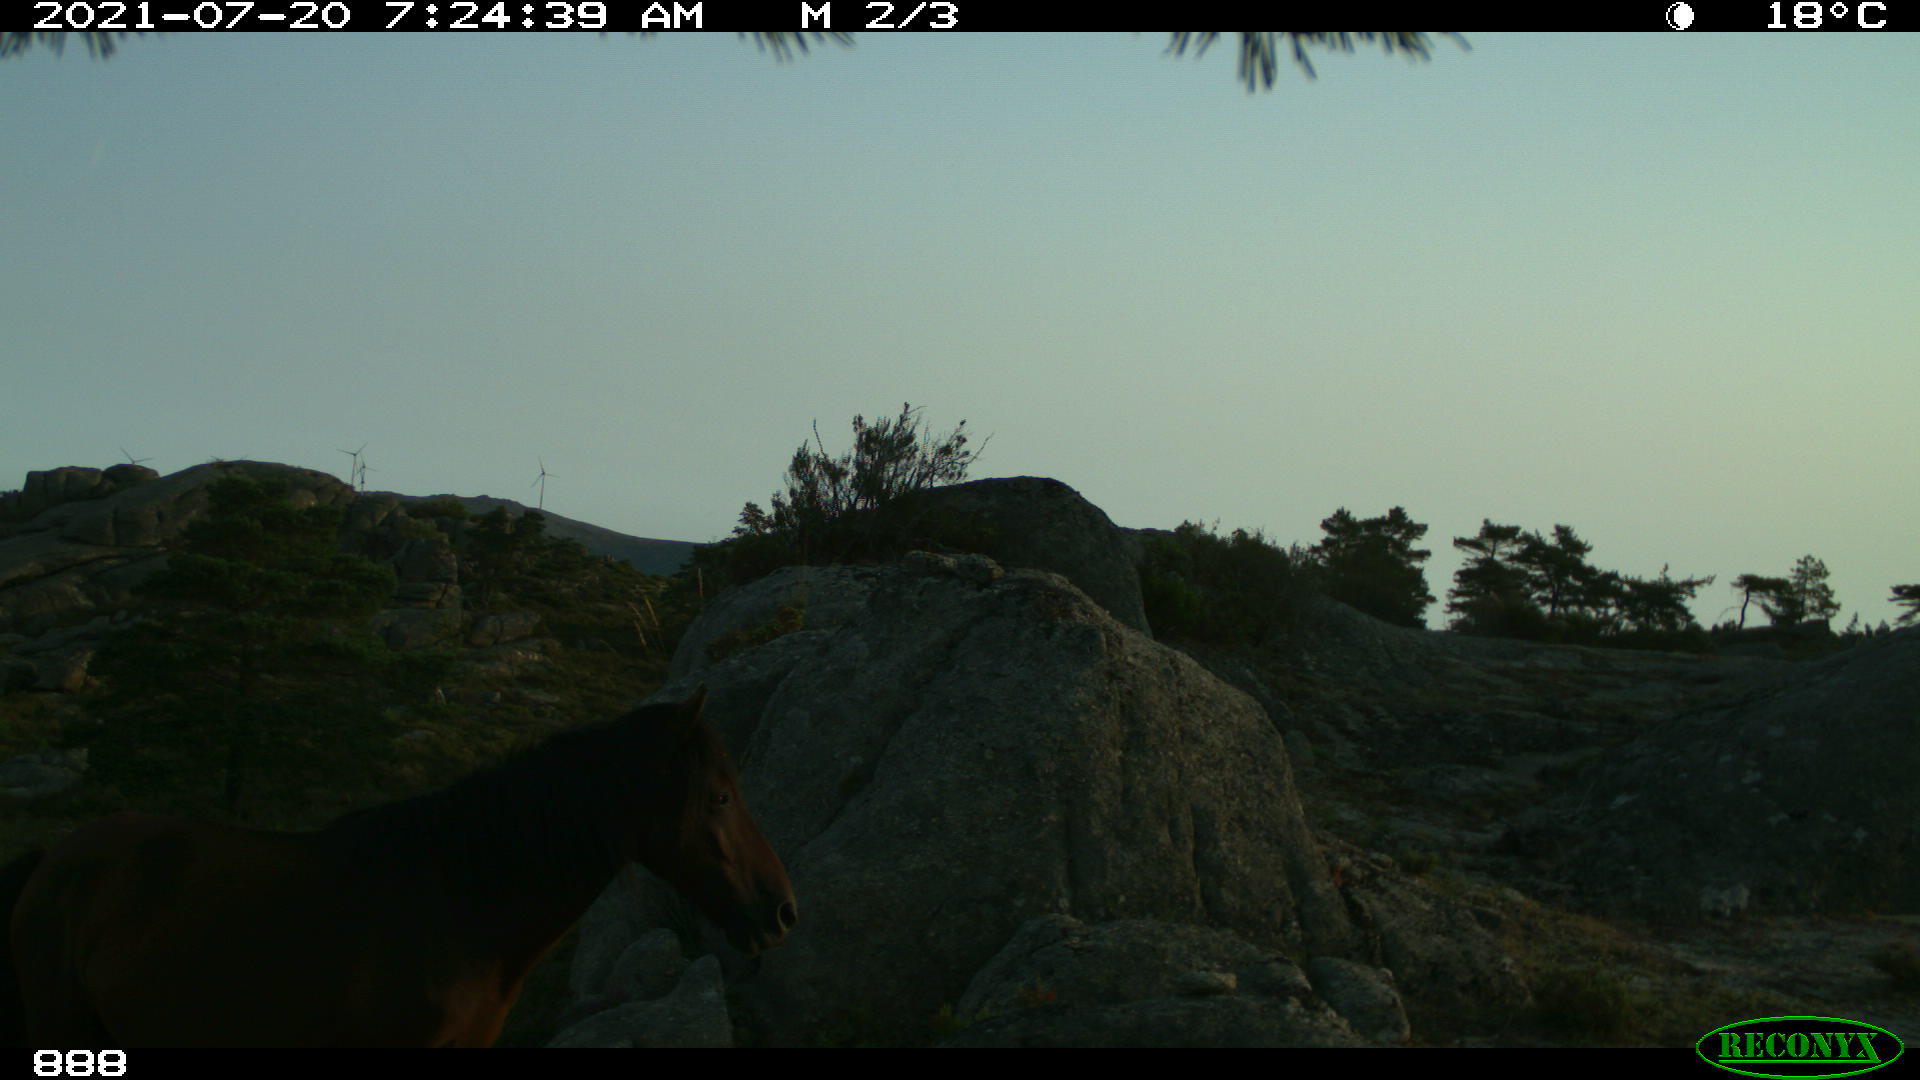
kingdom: Animalia
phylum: Chordata
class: Mammalia
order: Perissodactyla
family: Equidae
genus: Equus
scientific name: Equus caballus
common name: Horse
